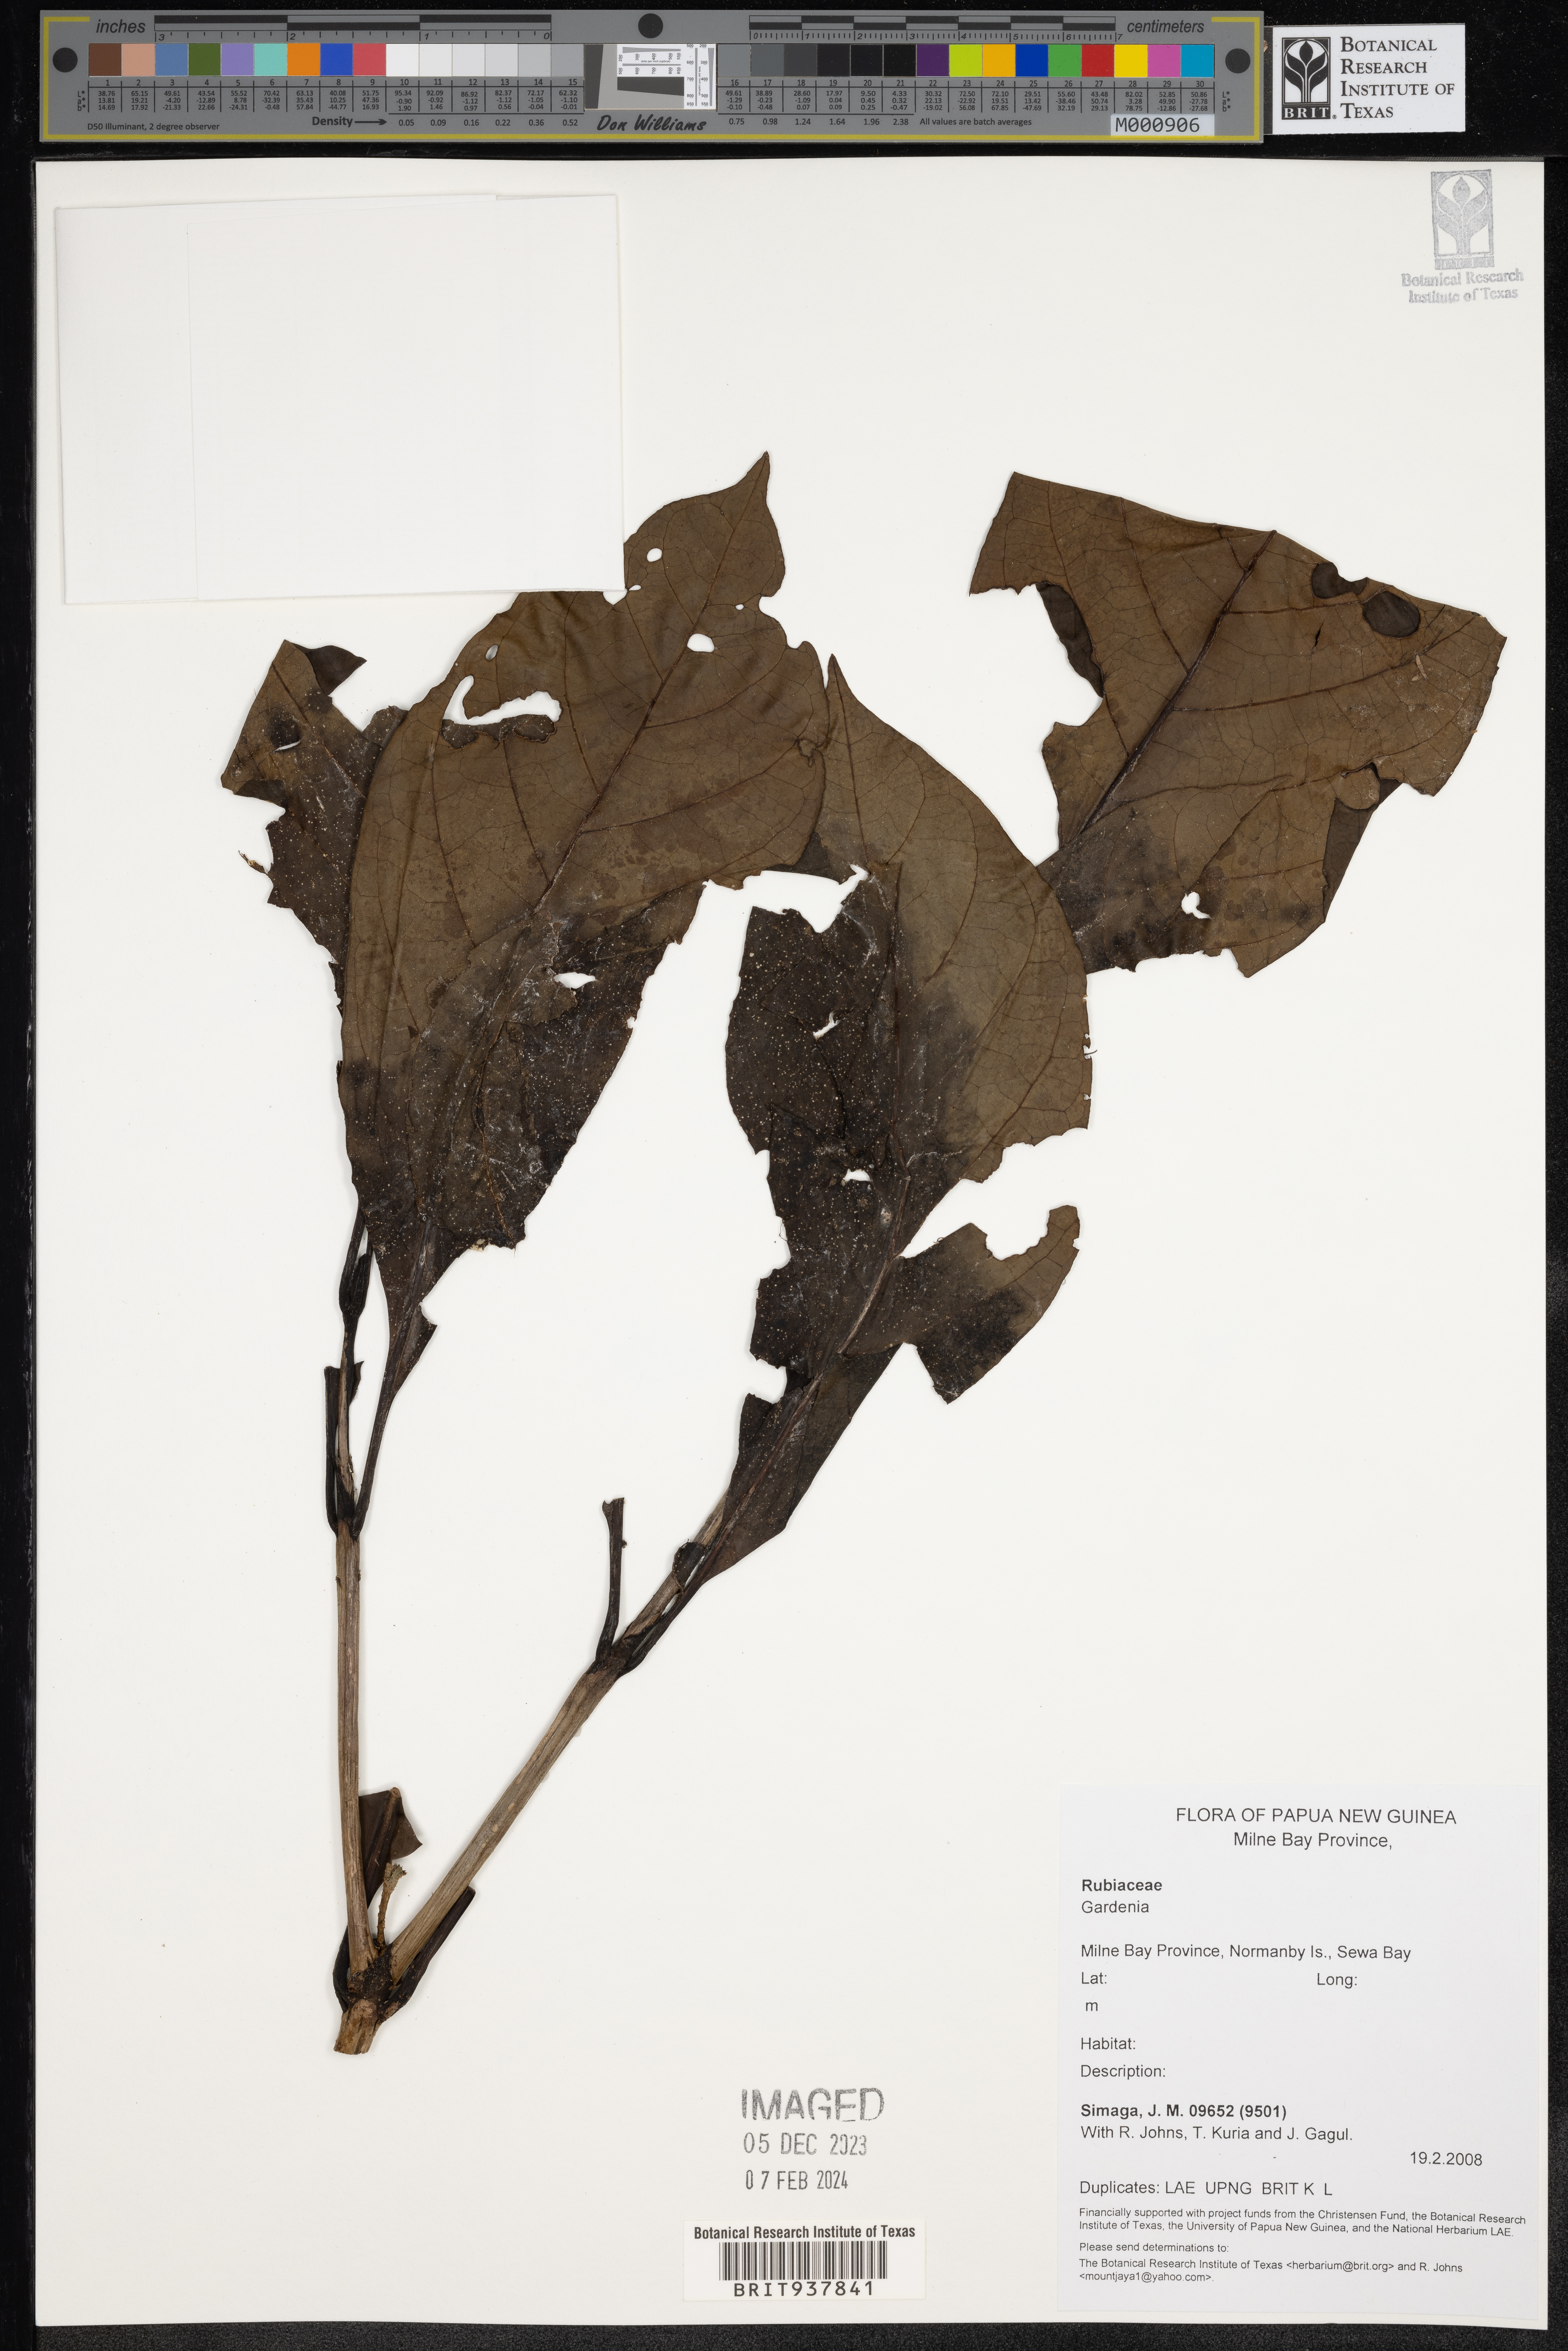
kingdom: Plantae
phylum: Tracheophyta
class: Magnoliopsida
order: Gentianales
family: Rubiaceae
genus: Gardenia
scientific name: Gardenia
